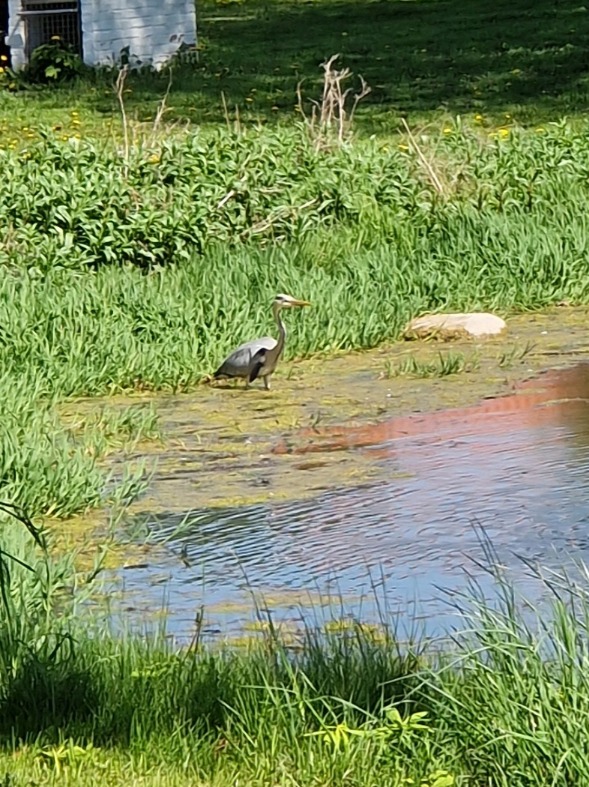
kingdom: Animalia
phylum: Chordata
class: Aves
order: Pelecaniformes
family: Ardeidae
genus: Ardea
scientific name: Ardea cinerea
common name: Fiskehejre
